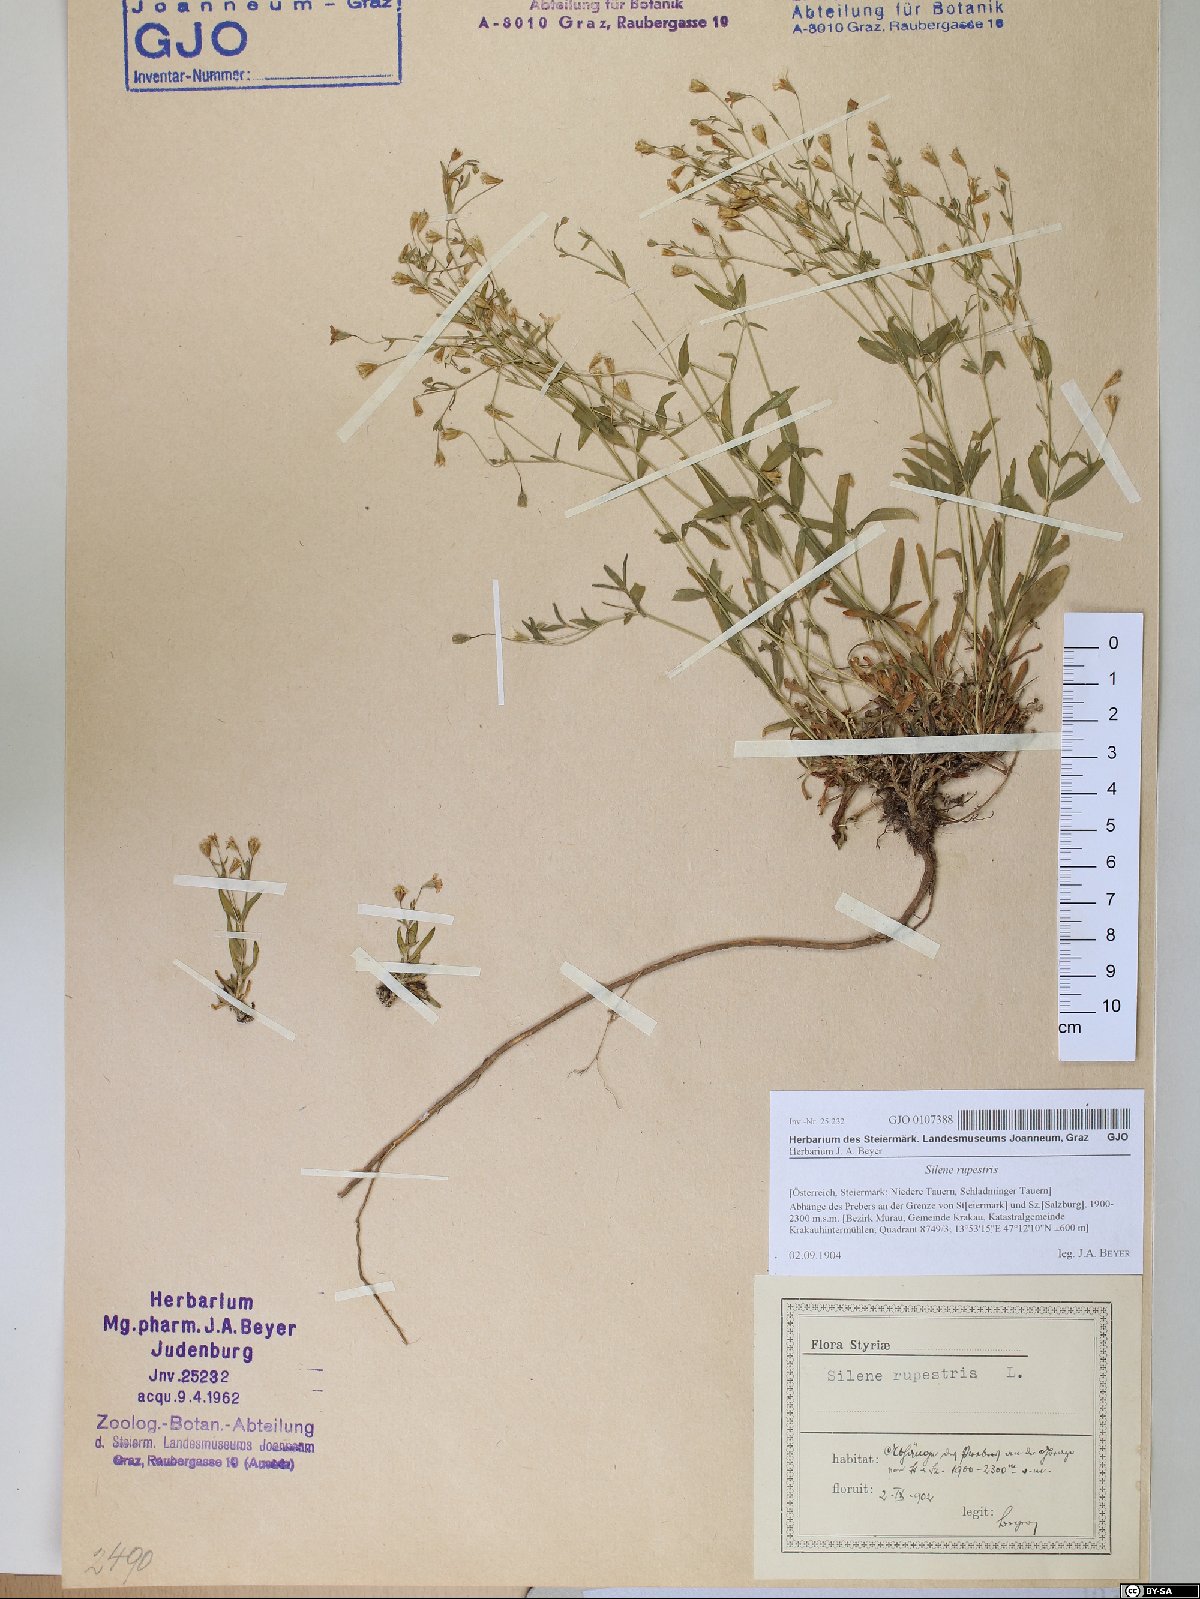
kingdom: Plantae
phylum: Tracheophyta
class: Magnoliopsida
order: Caryophyllales
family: Caryophyllaceae
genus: Atocion
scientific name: Atocion rupestre
